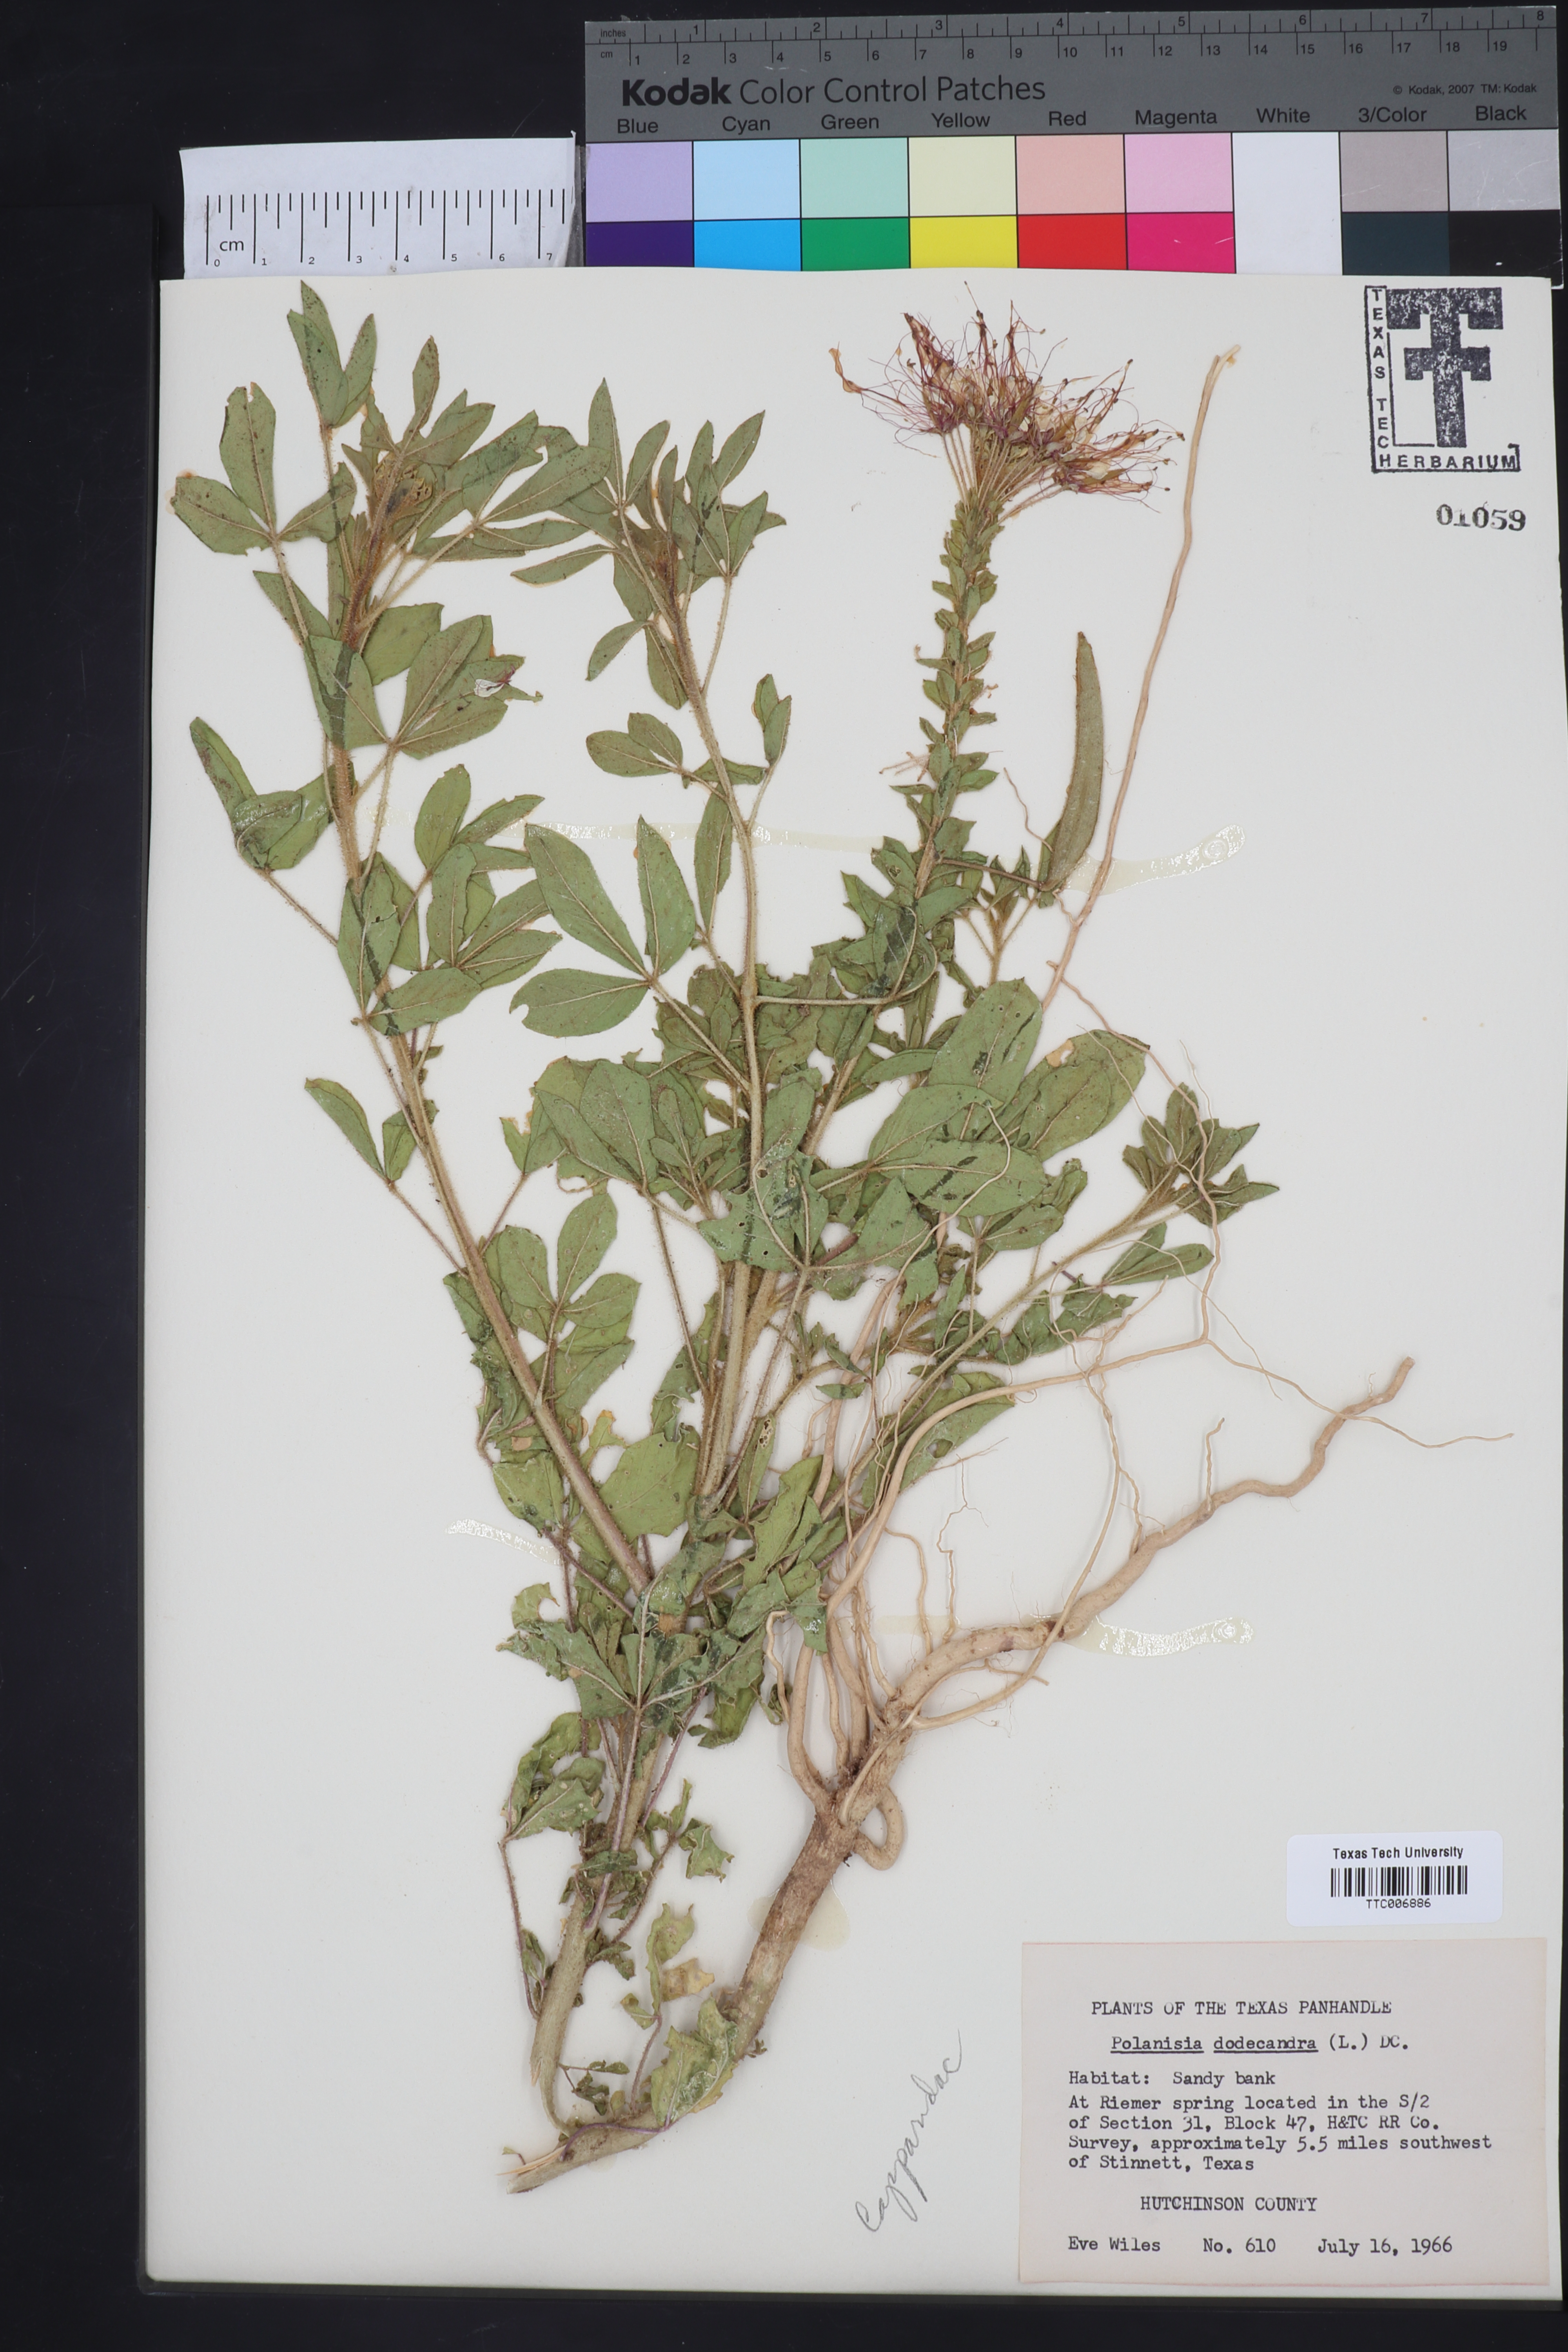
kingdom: Plantae
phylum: Tracheophyta
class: Magnoliopsida
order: Brassicales
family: Cleomaceae
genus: Polanisia
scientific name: Polanisia dodecandra
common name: Clammyweed
